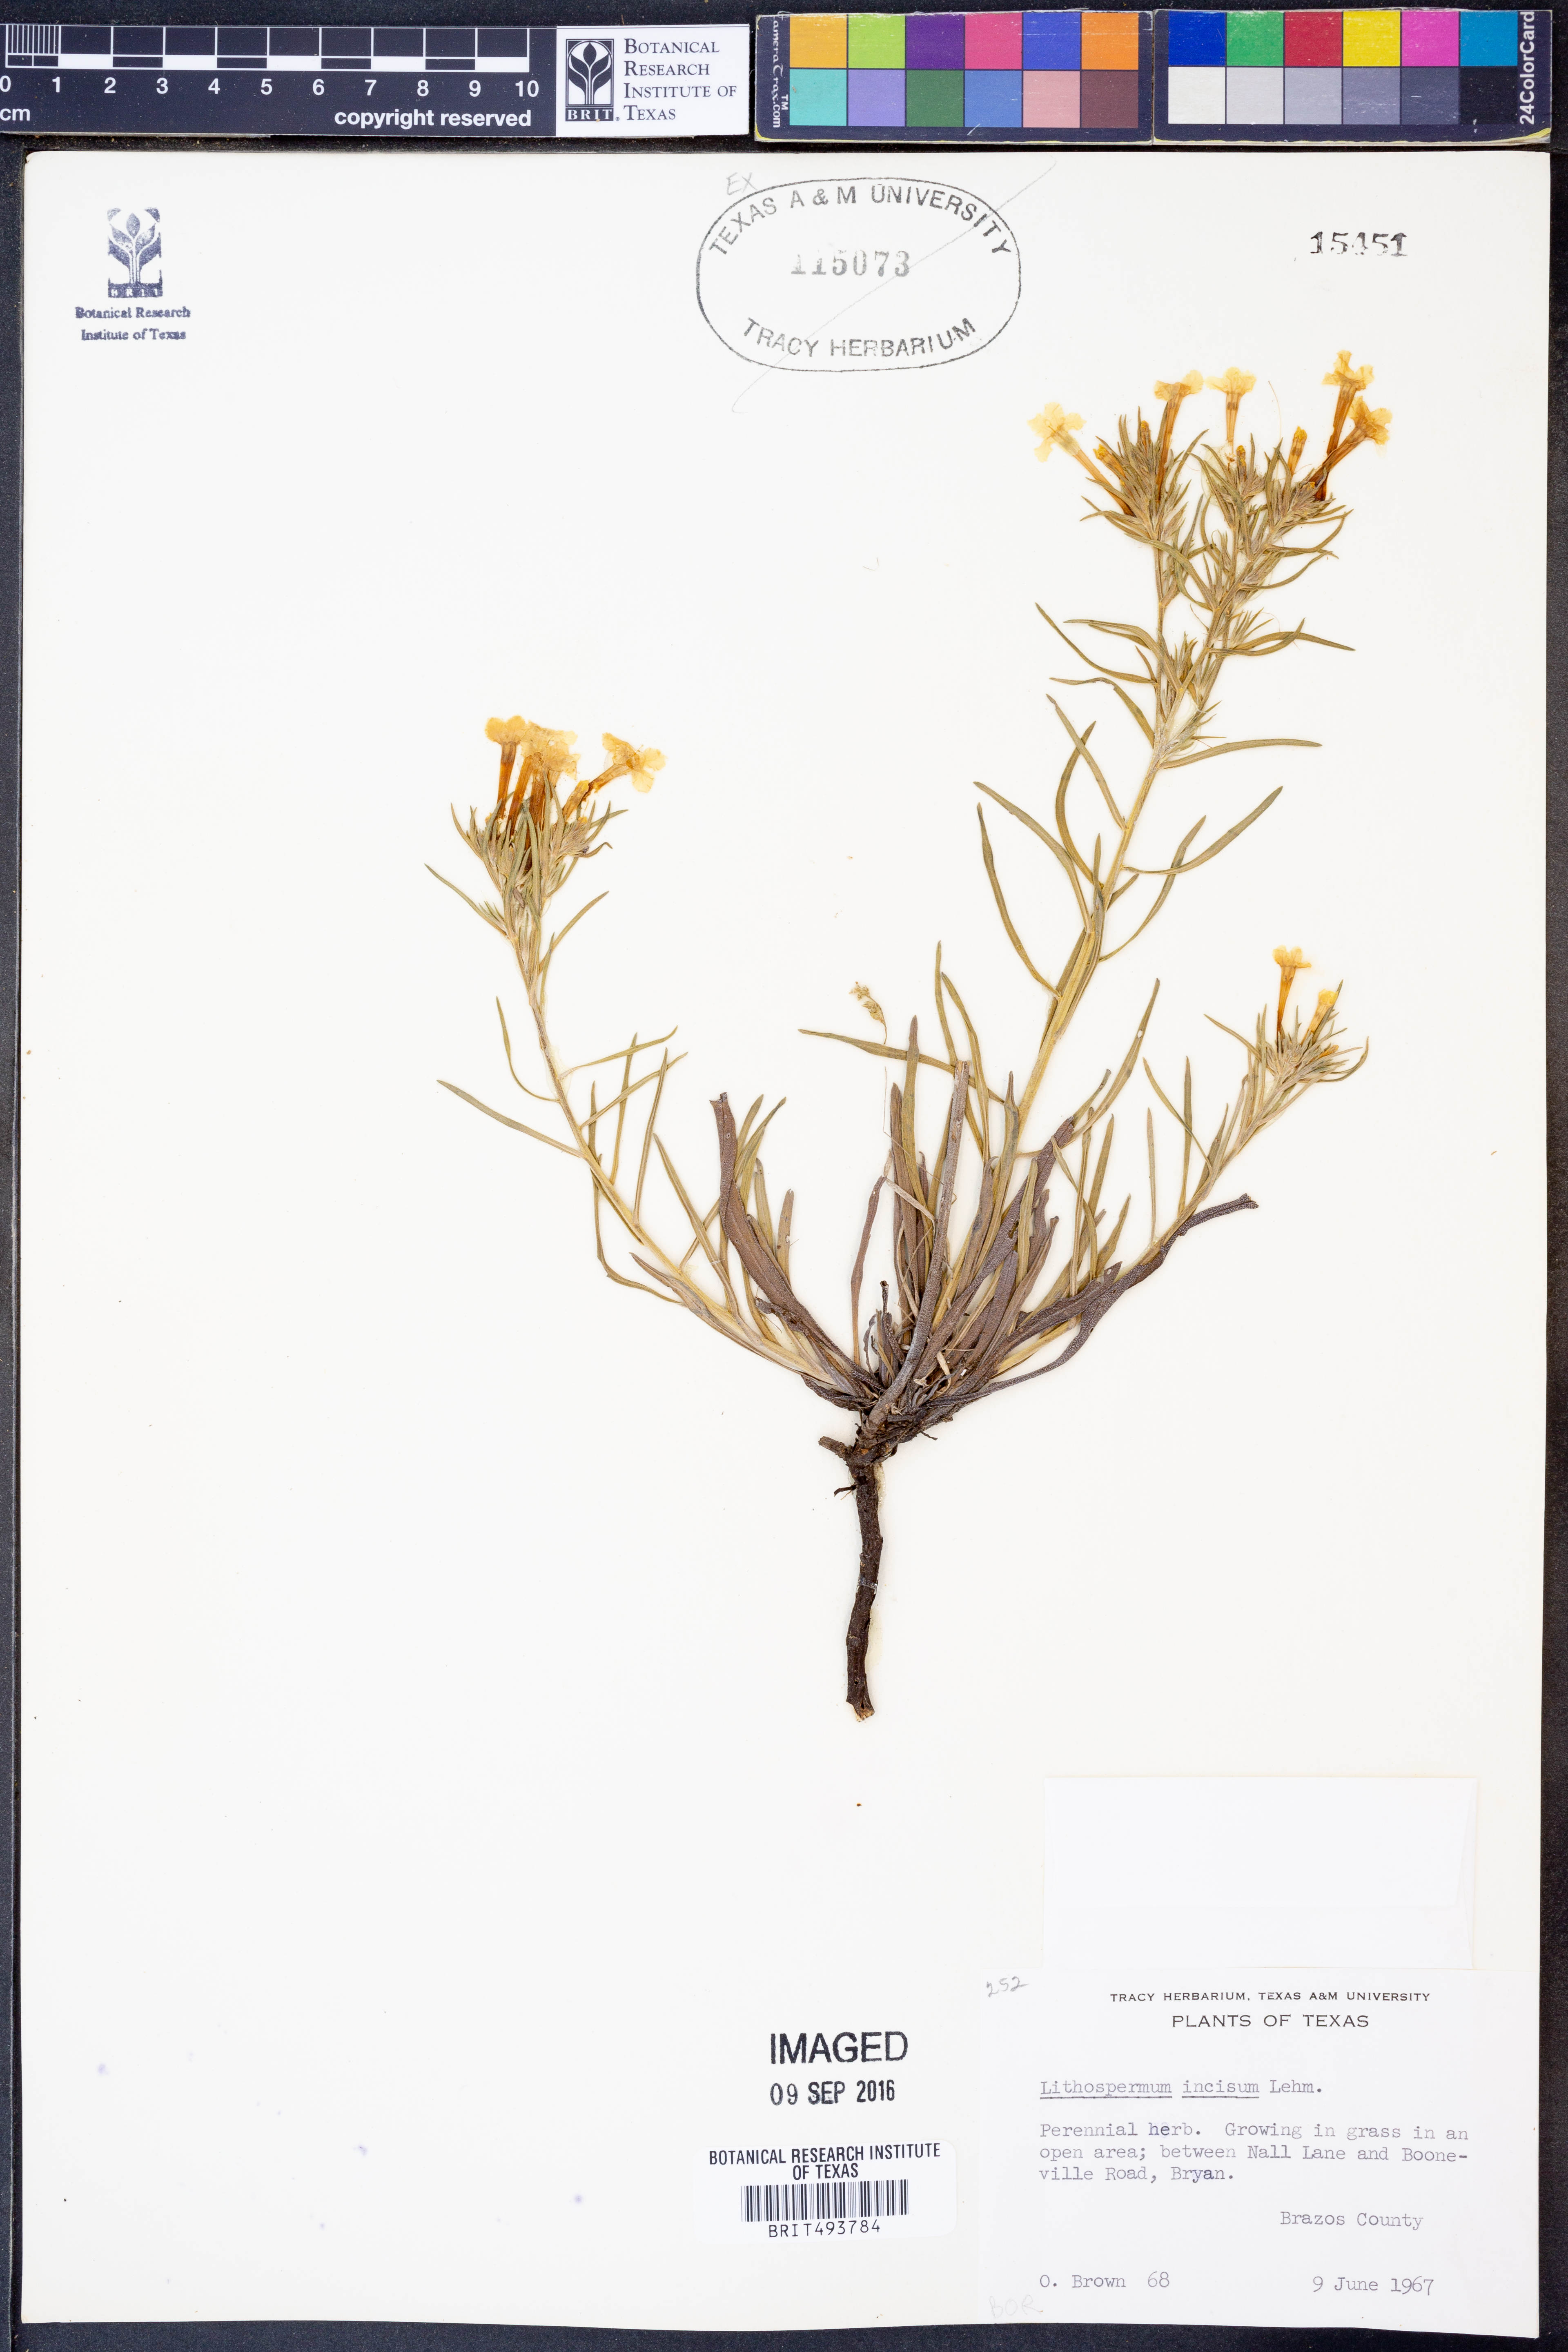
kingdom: Plantae
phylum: Tracheophyta
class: Magnoliopsida
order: Boraginales
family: Boraginaceae
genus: Lithospermum
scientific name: Lithospermum incisum
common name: Fringed gromwell
